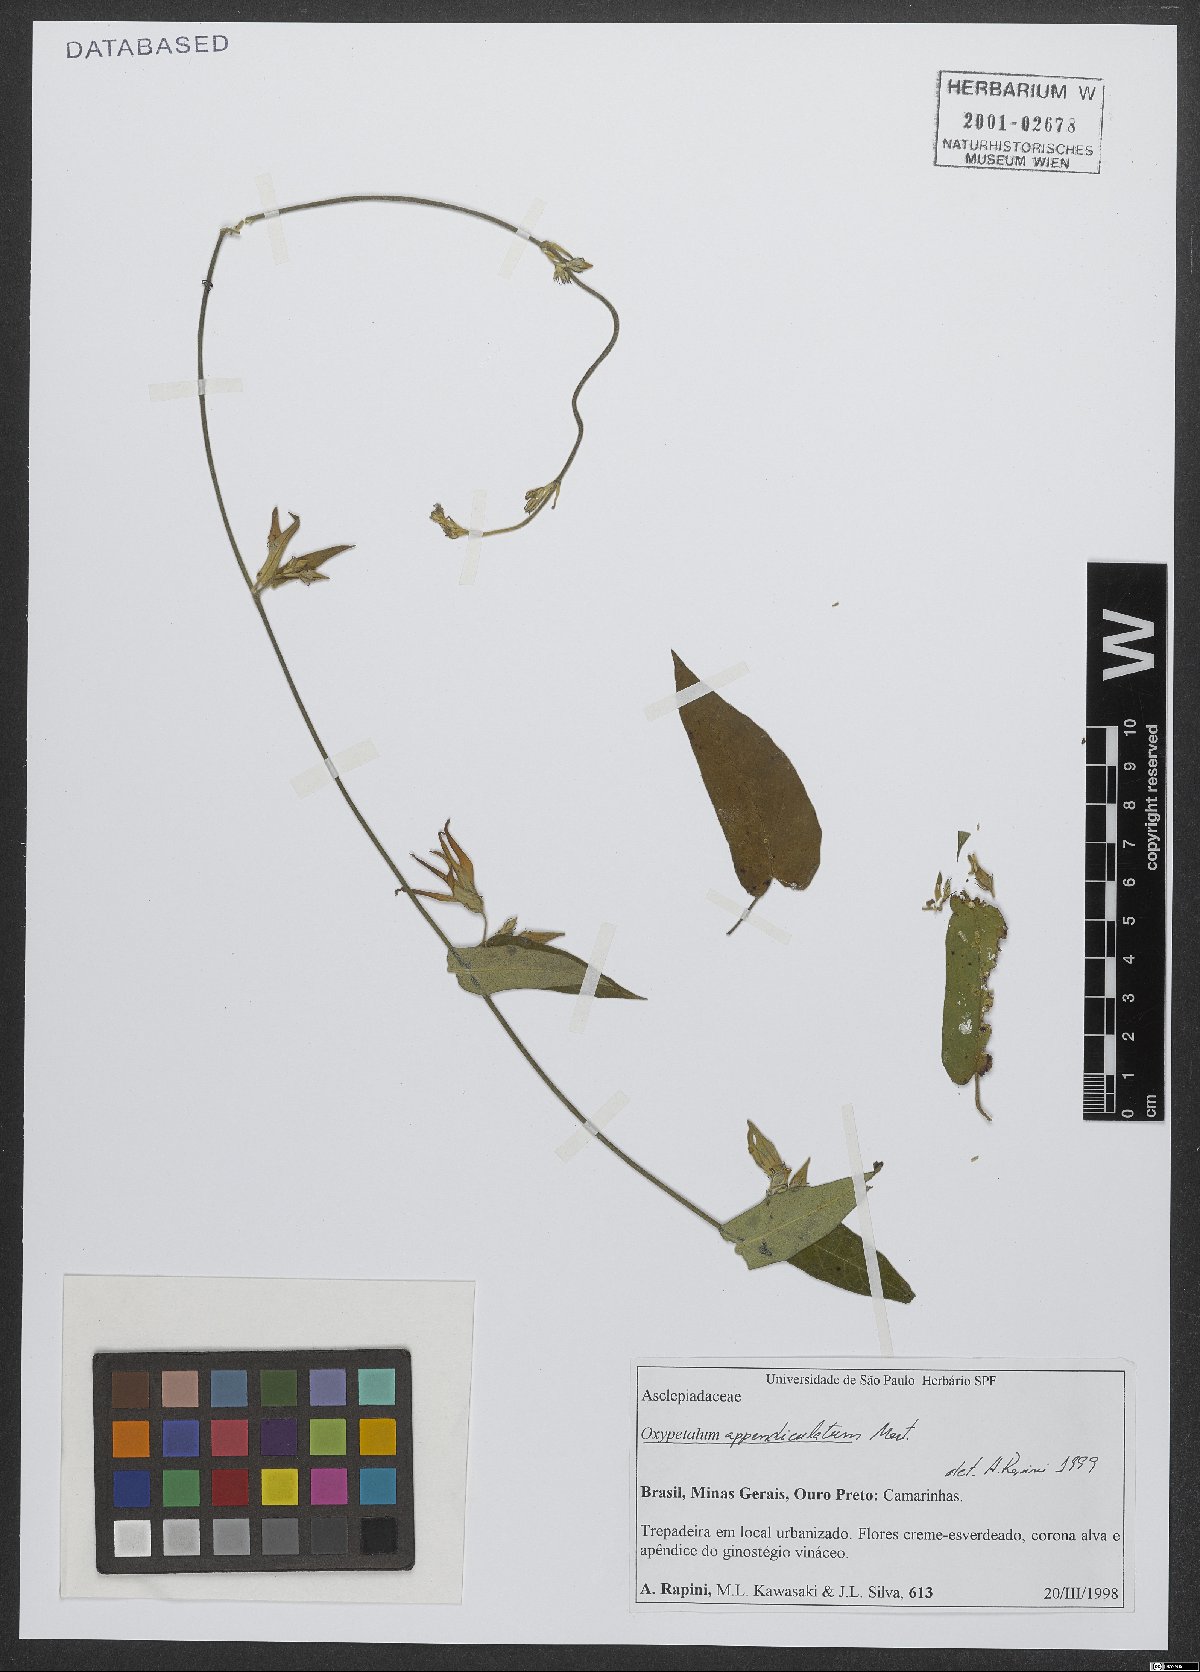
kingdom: Plantae
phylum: Tracheophyta
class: Magnoliopsida
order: Gentianales
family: Apocynaceae
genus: Oxypetalum
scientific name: Oxypetalum appendiculatum
